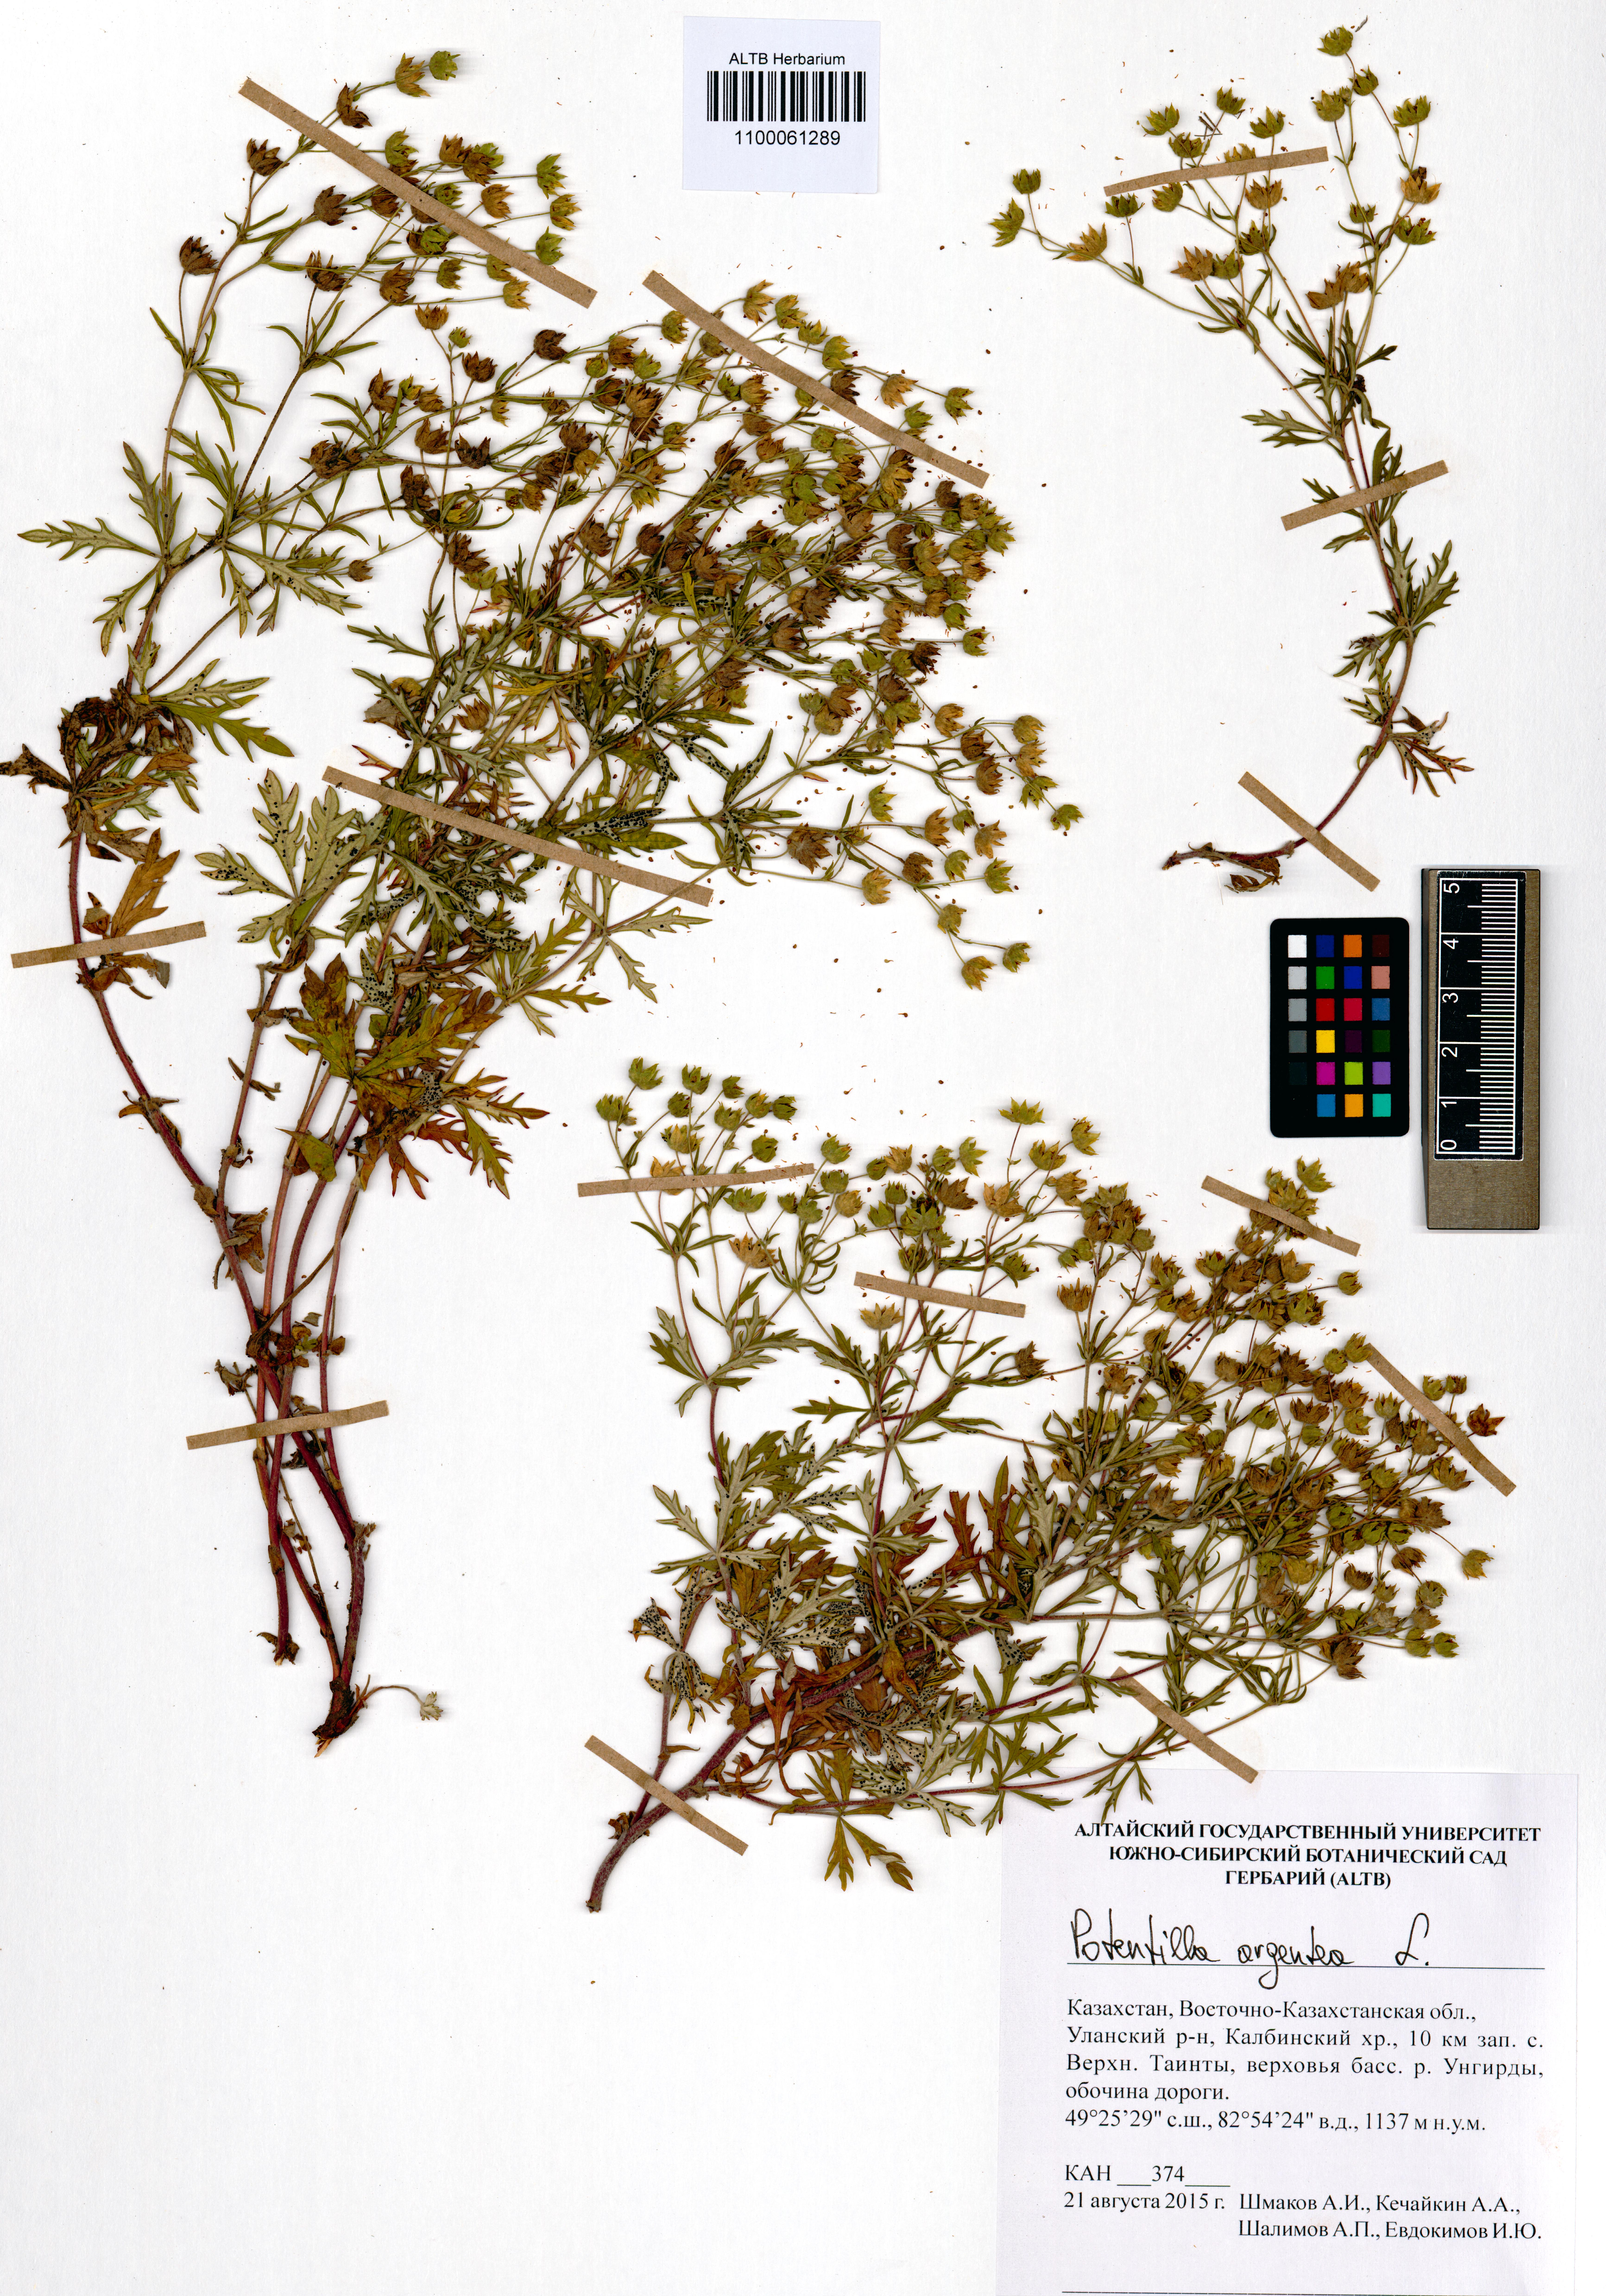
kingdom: Plantae
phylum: Tracheophyta
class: Magnoliopsida
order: Rosales
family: Rosaceae
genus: Potentilla
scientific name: Potentilla argentea
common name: Hoary cinquefoil
